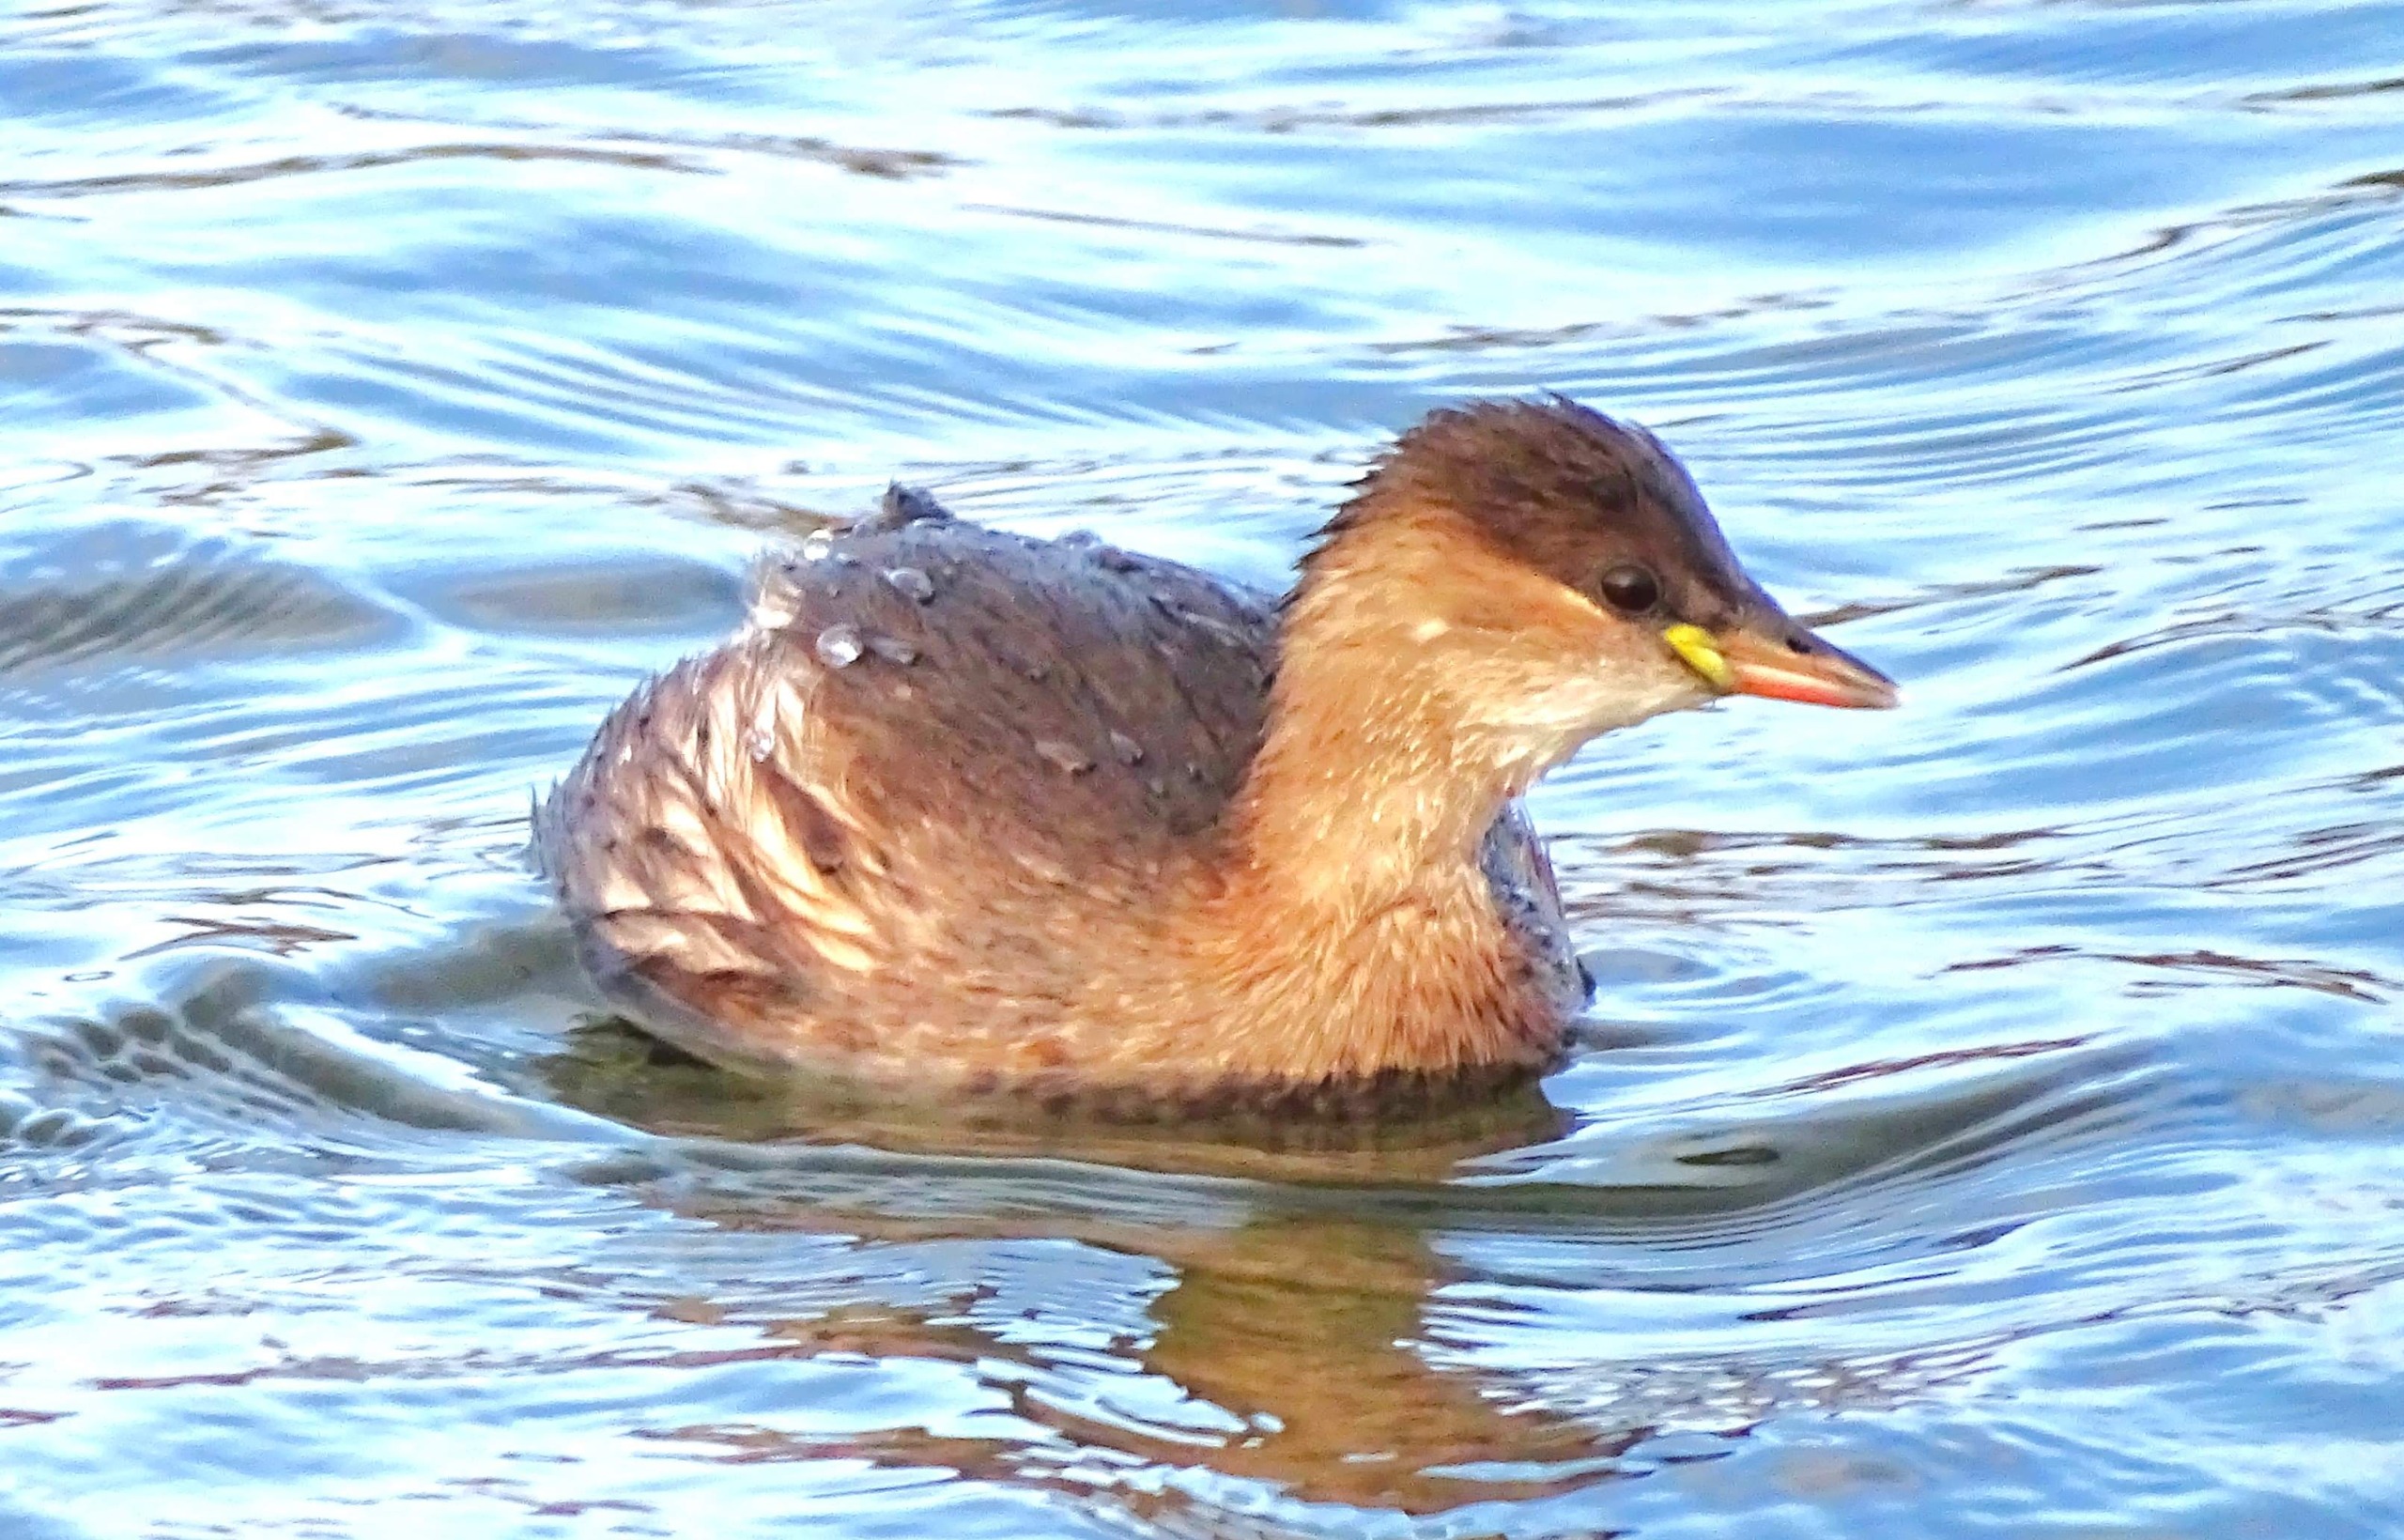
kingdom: Animalia
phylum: Chordata
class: Aves
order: Podicipediformes
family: Podicipedidae
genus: Tachybaptus
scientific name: Tachybaptus ruficollis
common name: Lille lappedykker
